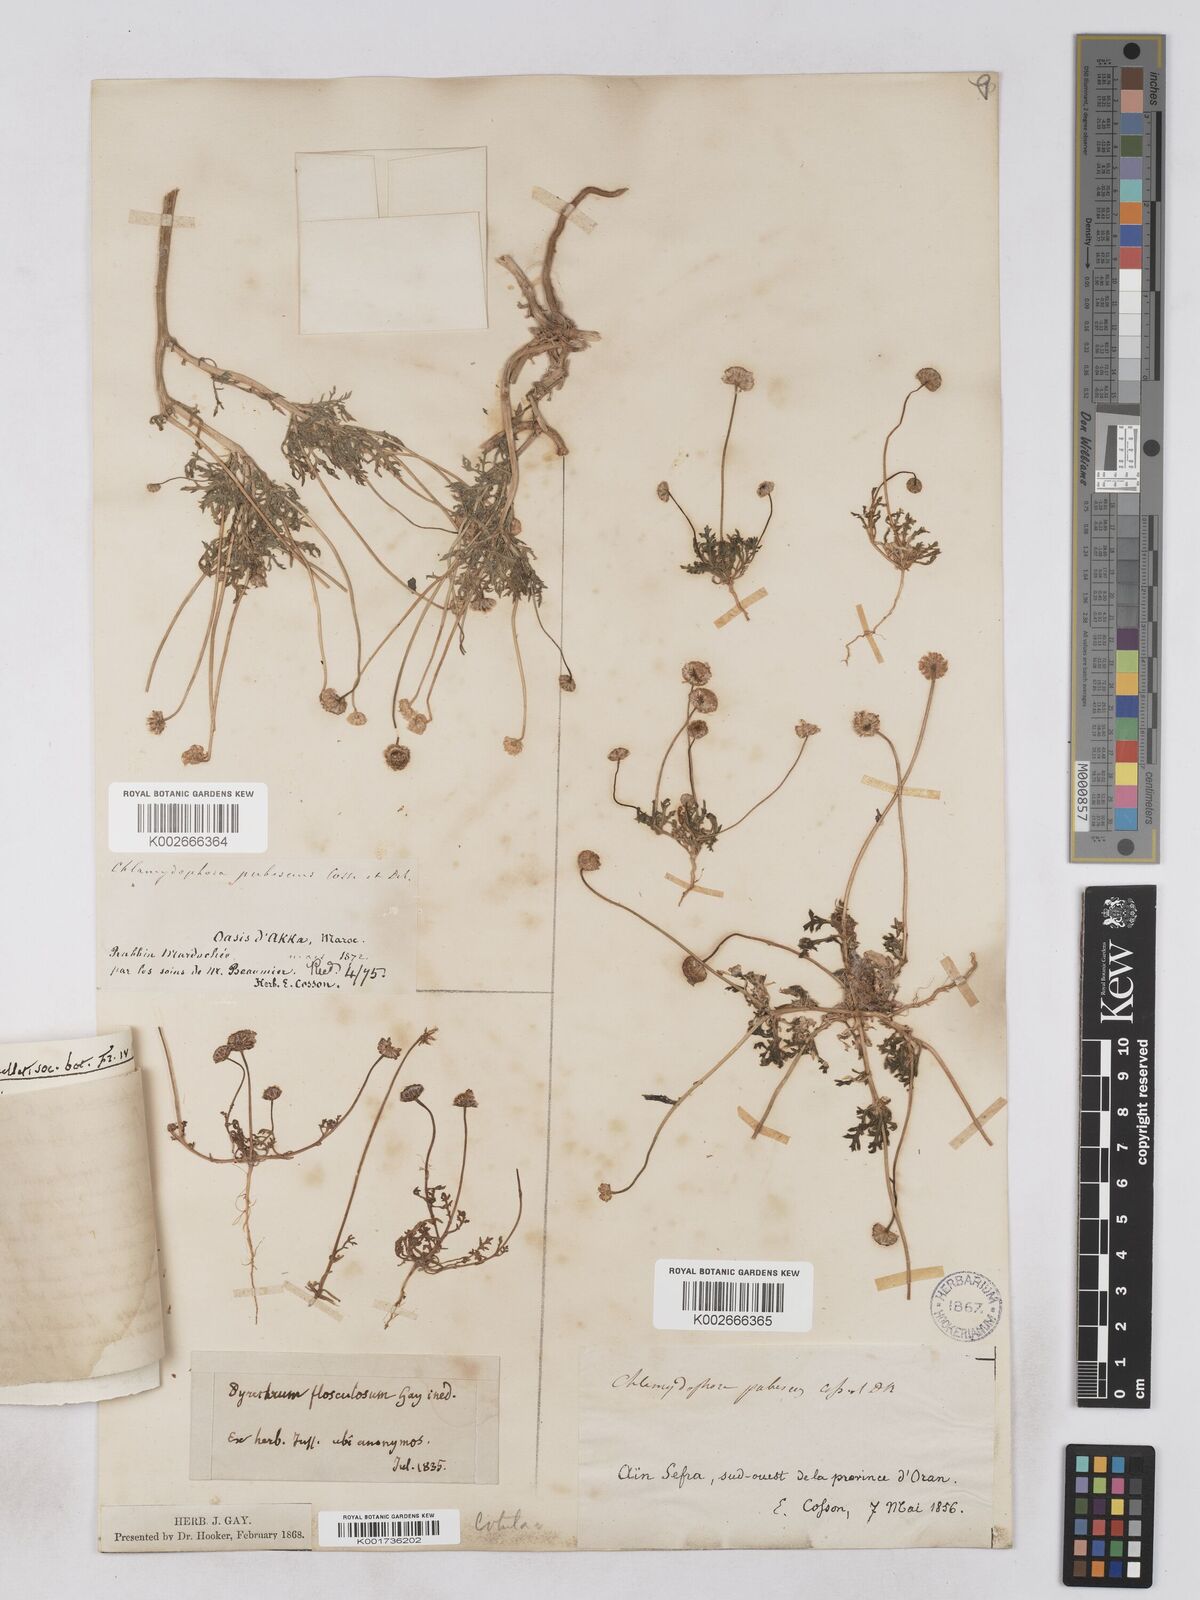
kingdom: Plantae
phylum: Tracheophyta
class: Magnoliopsida
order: Asterales
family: Asteraceae
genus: Otoglyphis
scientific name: Otoglyphis pubescens
